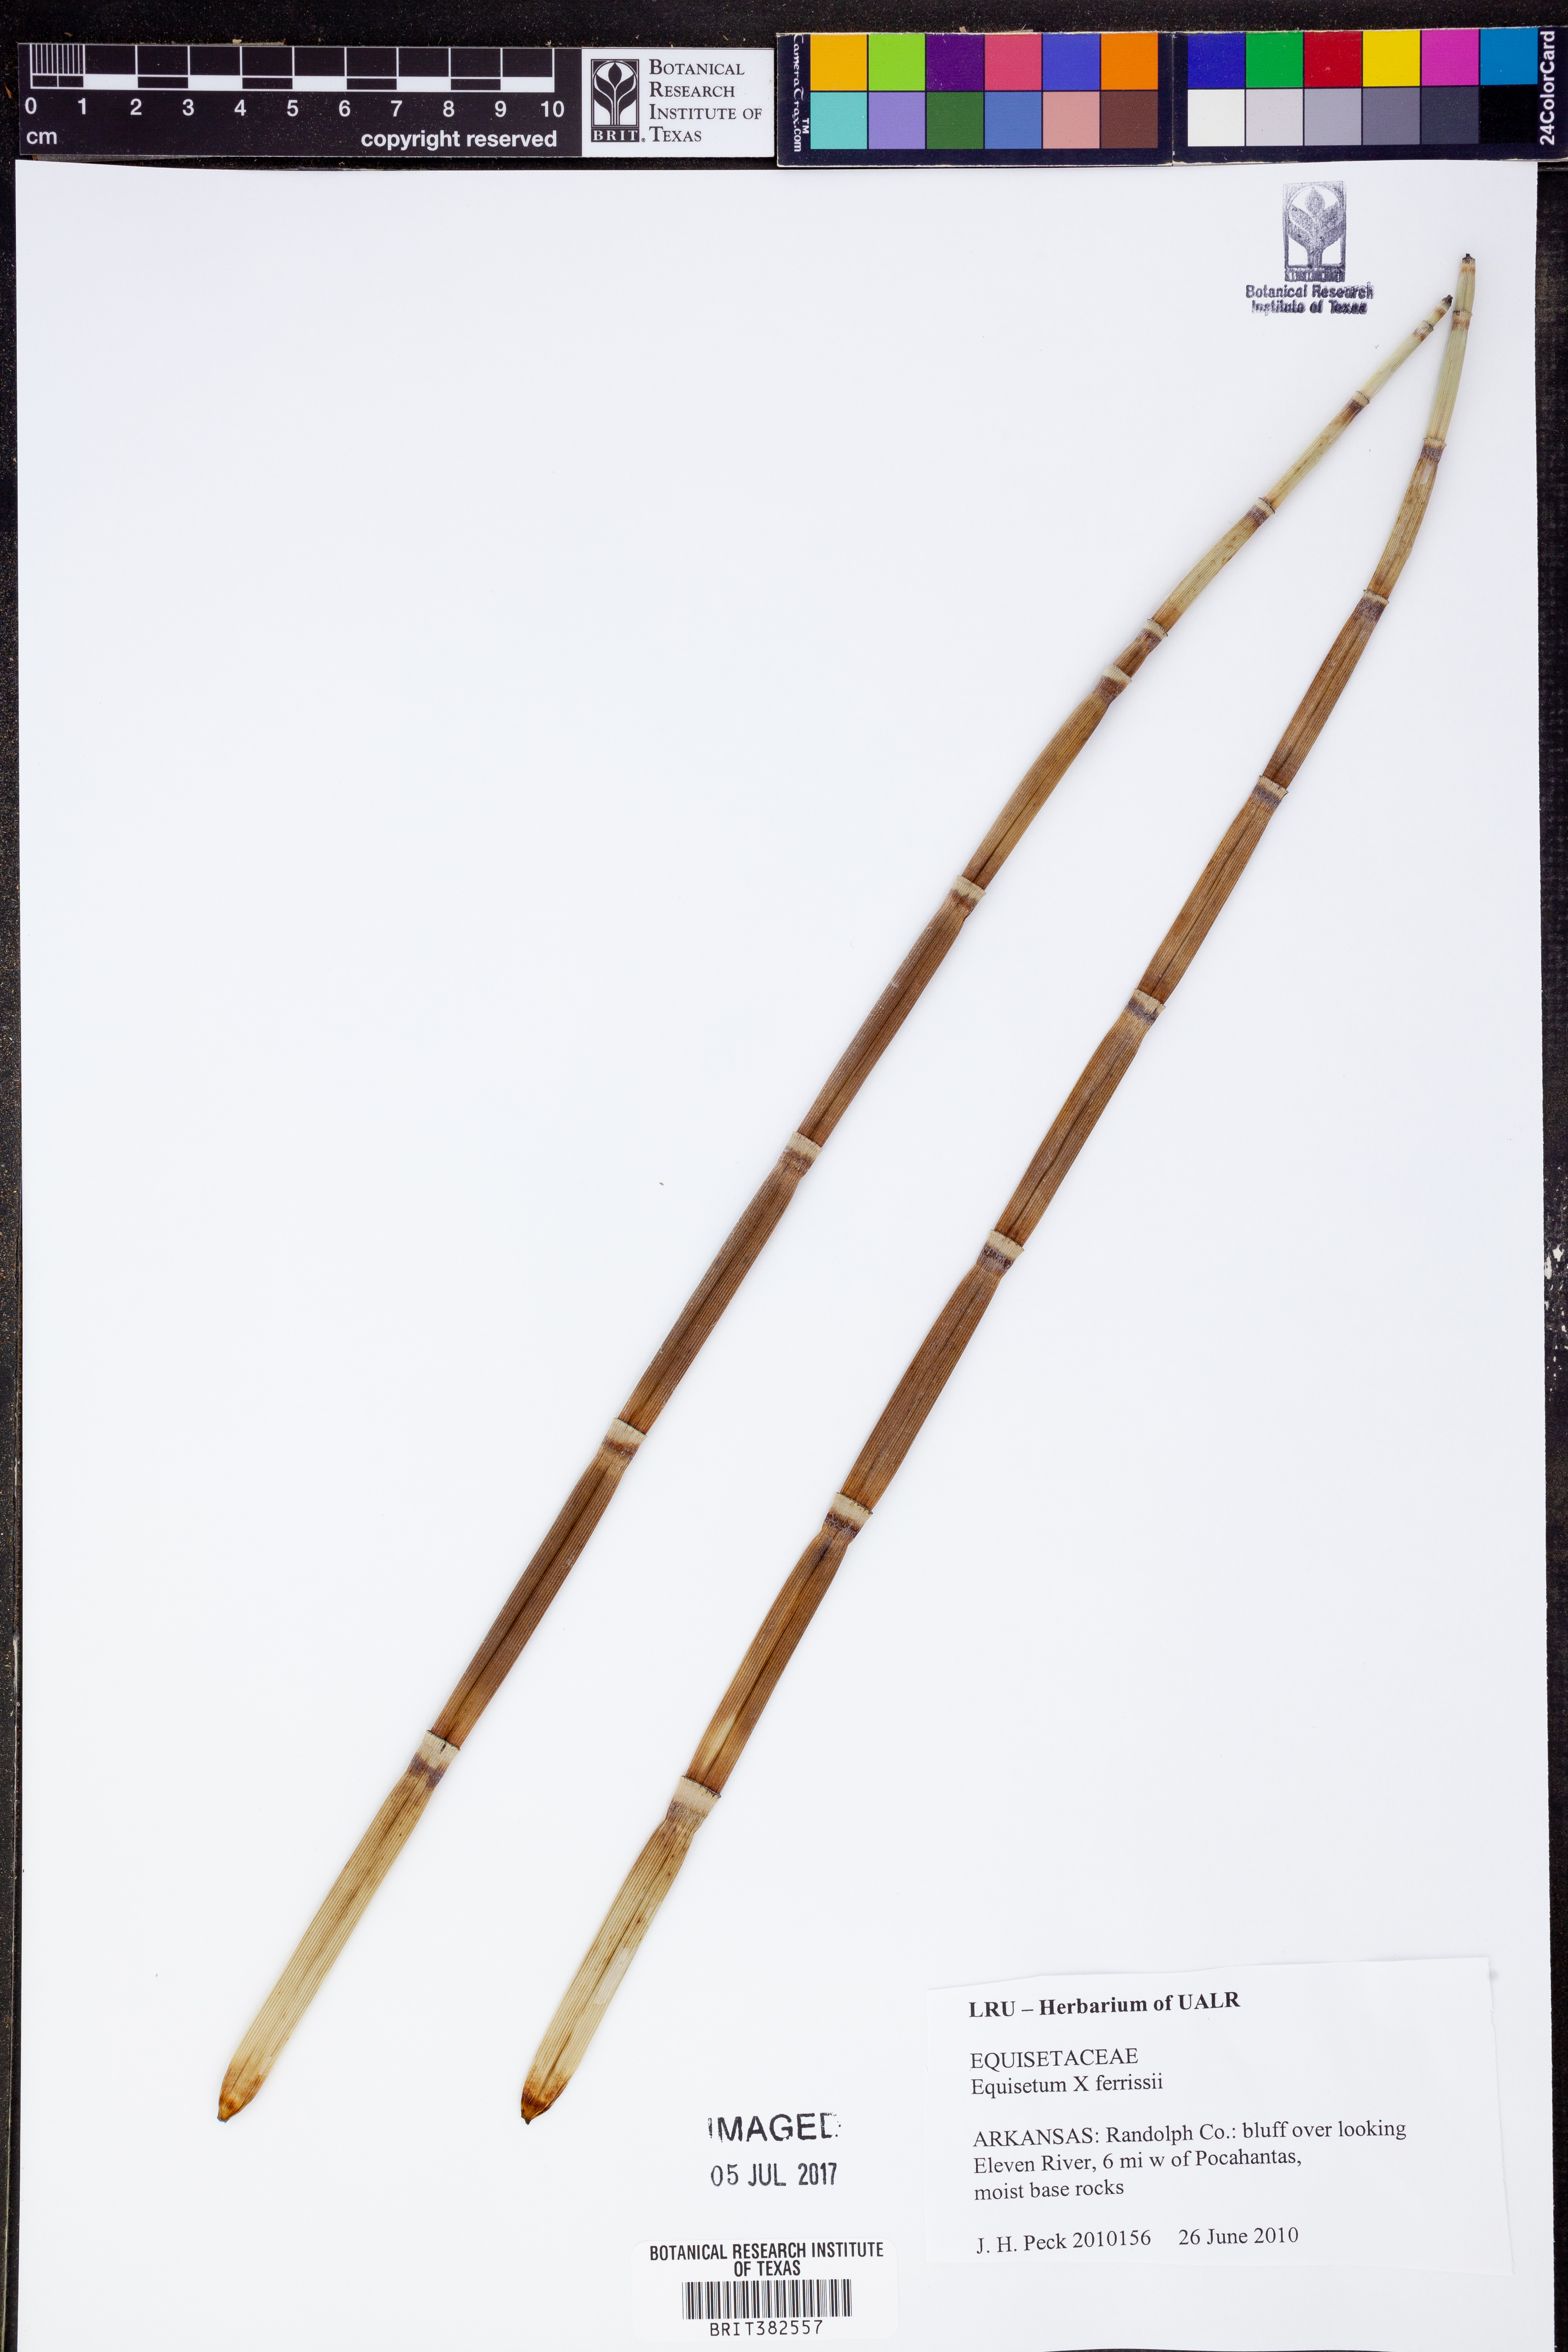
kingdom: Plantae
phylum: Tracheophyta
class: Polypodiopsida
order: Equisetales
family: Equisetaceae
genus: Equisetum
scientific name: Equisetum ferrissii
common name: Ferriss' horsetail
